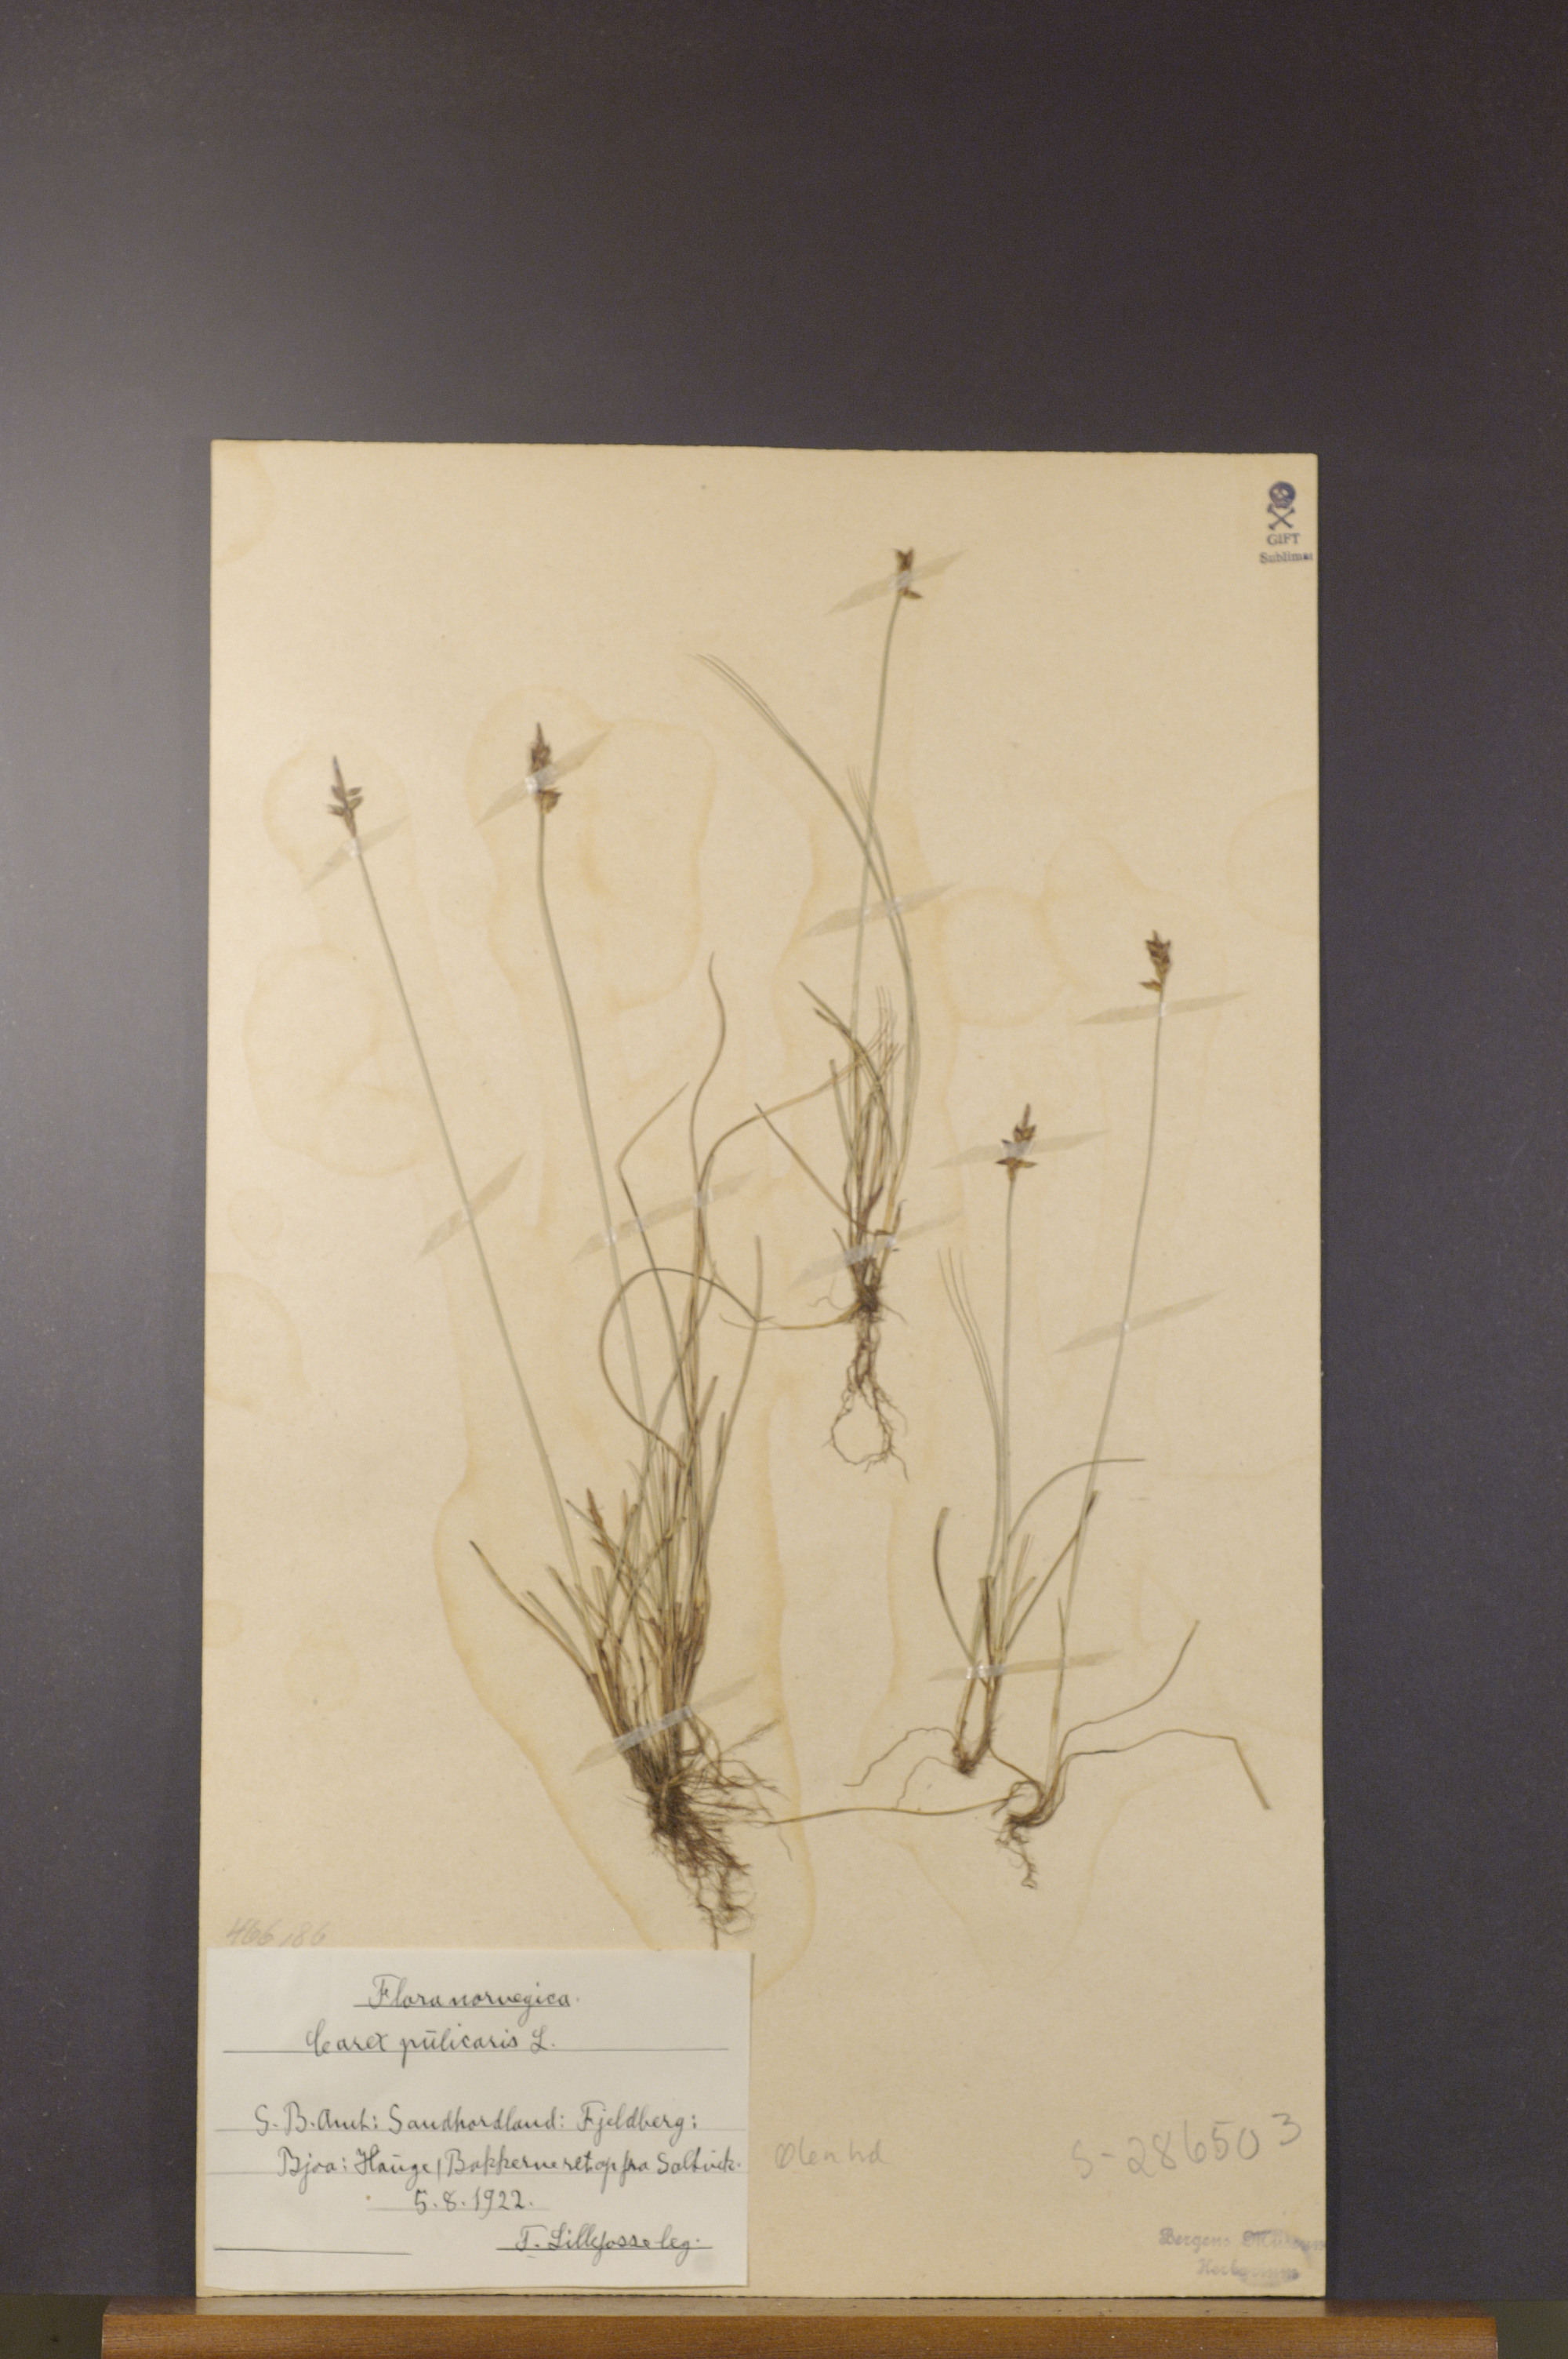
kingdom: Plantae
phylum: Tracheophyta
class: Liliopsida
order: Poales
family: Cyperaceae
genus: Carex
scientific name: Carex pulicaris
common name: Flea sedge
